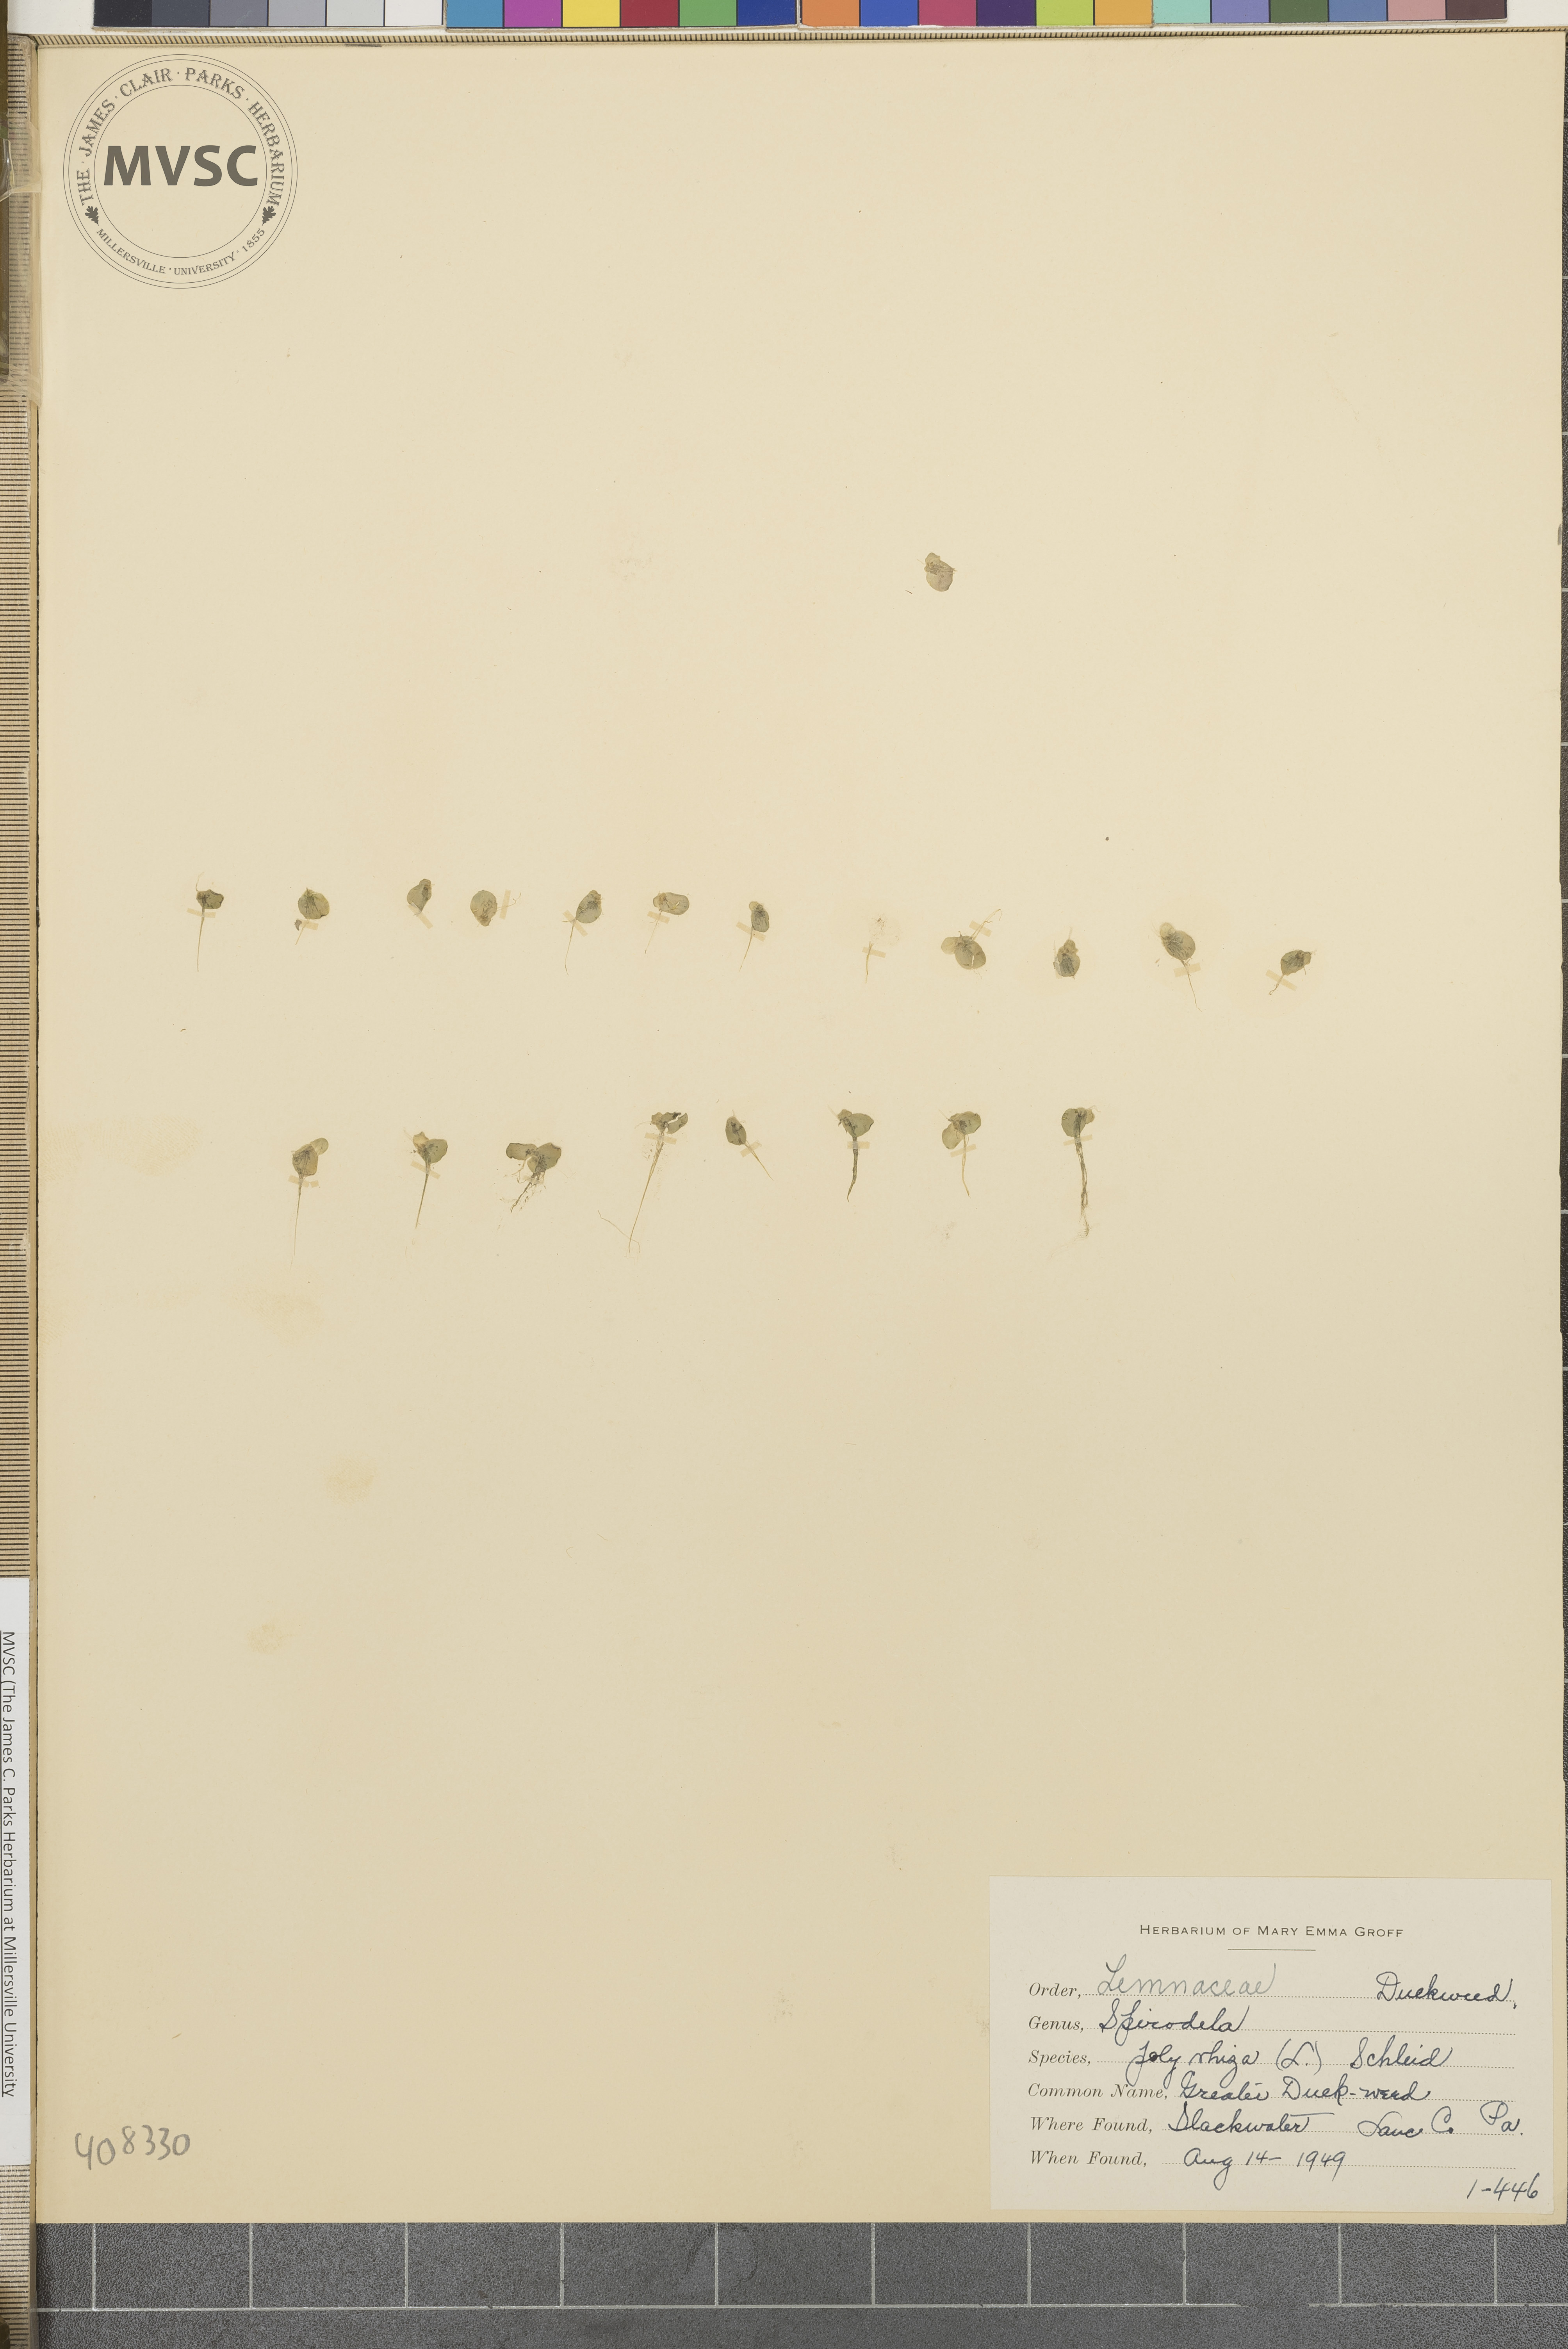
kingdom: Plantae
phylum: Tracheophyta
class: Liliopsida
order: Alismatales
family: Araceae
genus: Spirodela
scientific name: Spirodela polyrhiza
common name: greater duckweed
